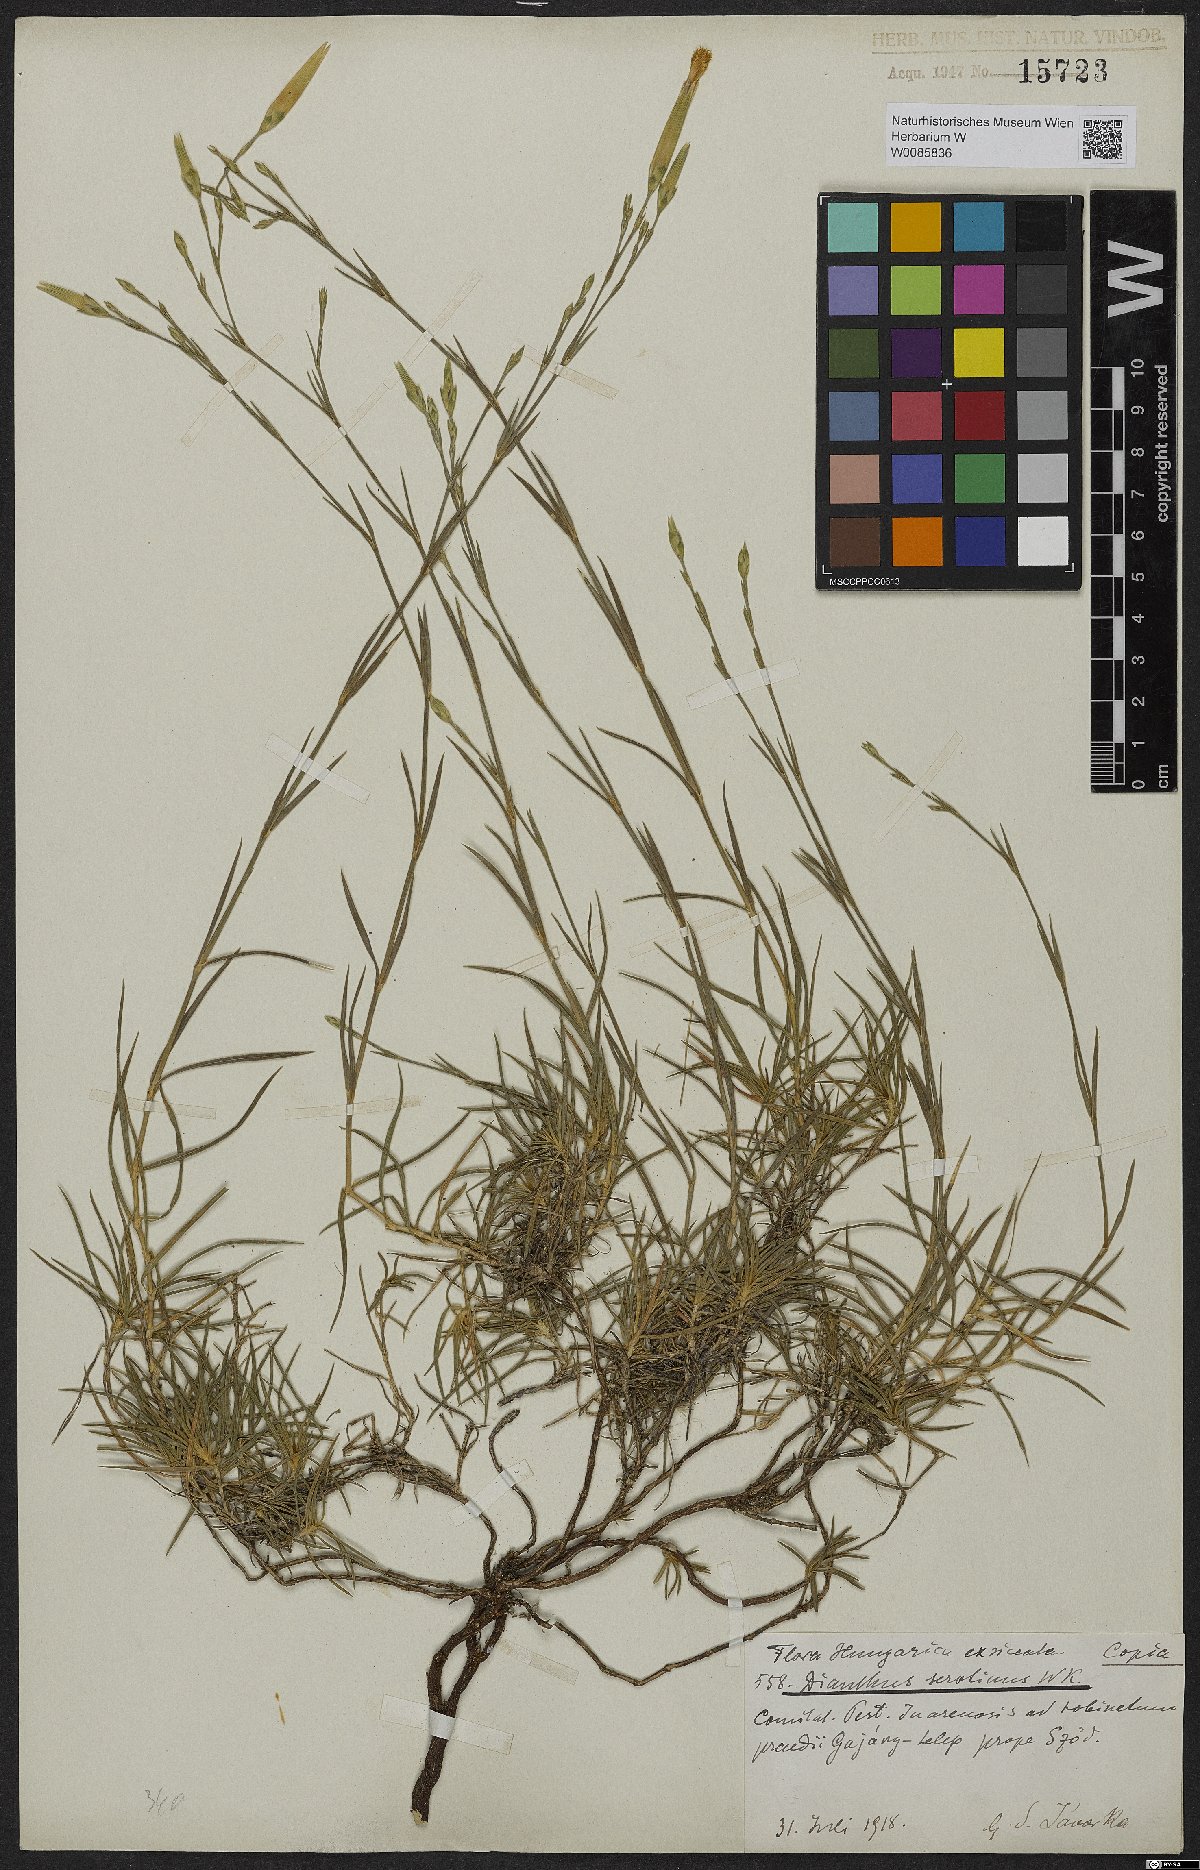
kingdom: Plantae
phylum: Tracheophyta
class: Magnoliopsida
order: Caryophyllales
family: Caryophyllaceae
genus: Dianthus
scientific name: Dianthus serotinus
